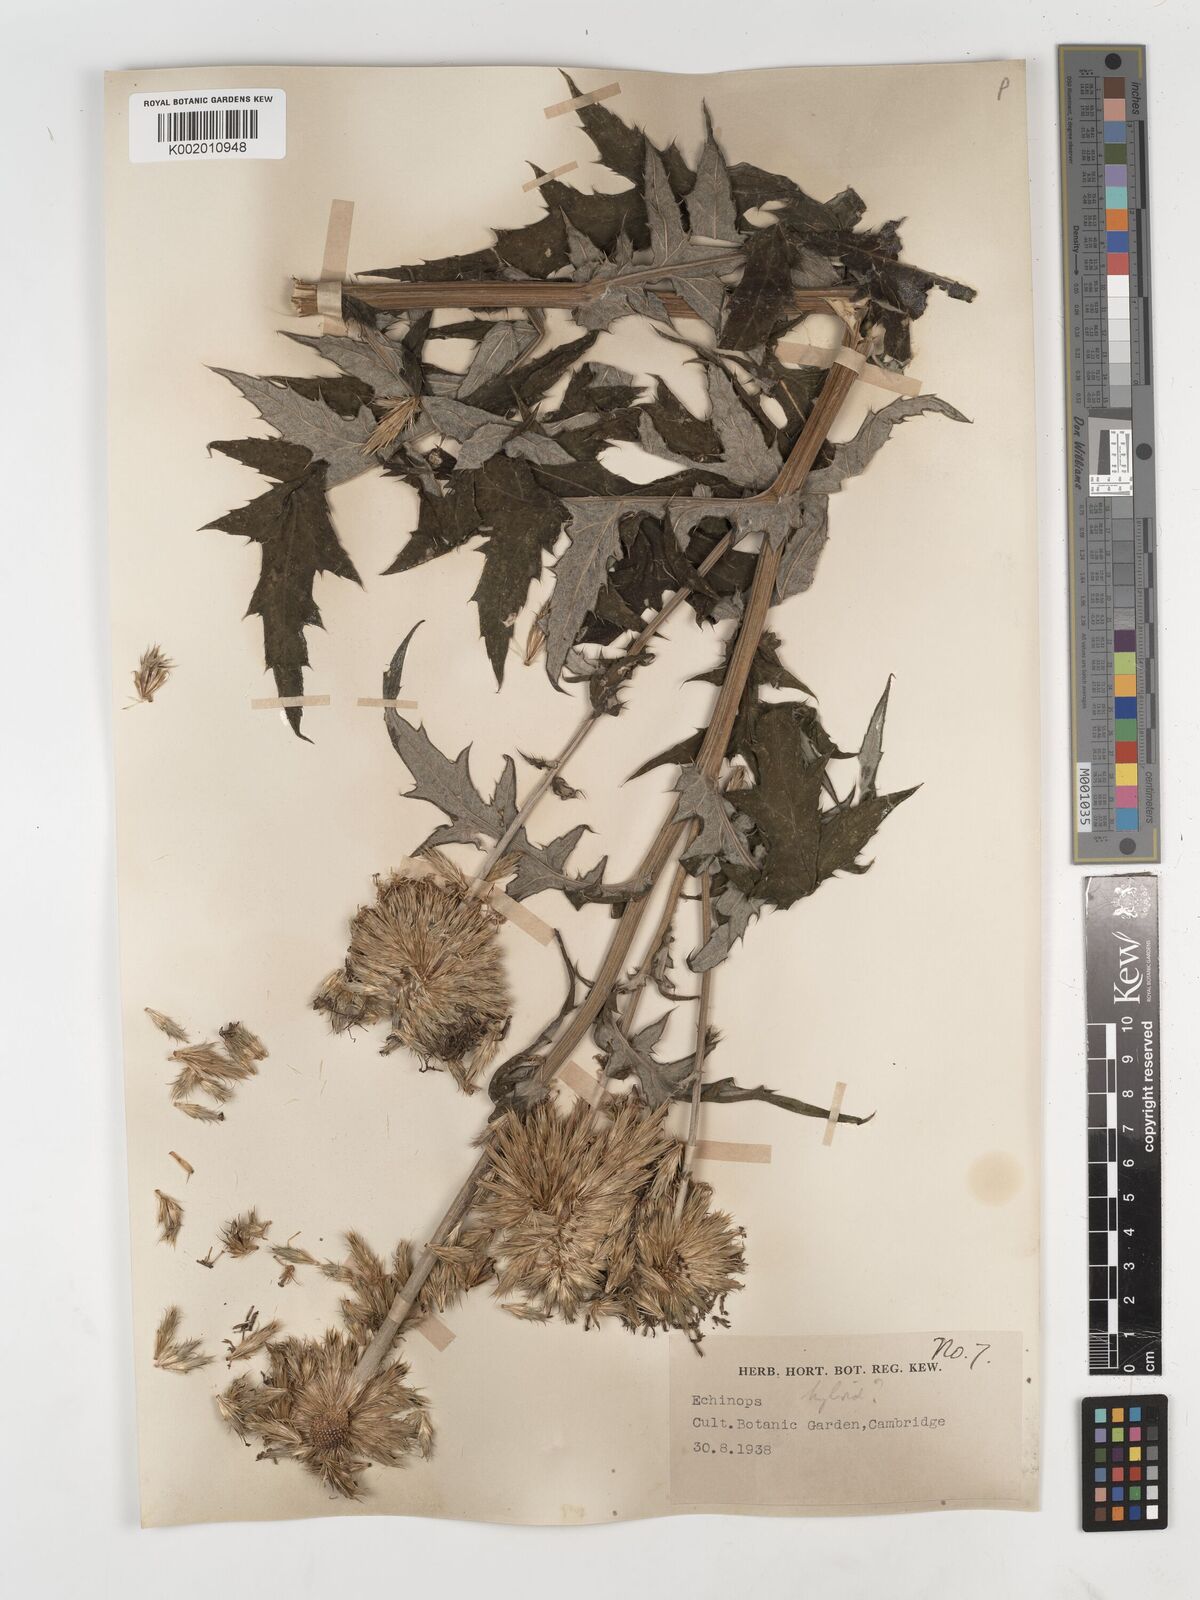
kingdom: Plantae
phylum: Tracheophyta
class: Magnoliopsida
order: Asterales
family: Asteraceae
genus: Echinops
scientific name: Echinops
